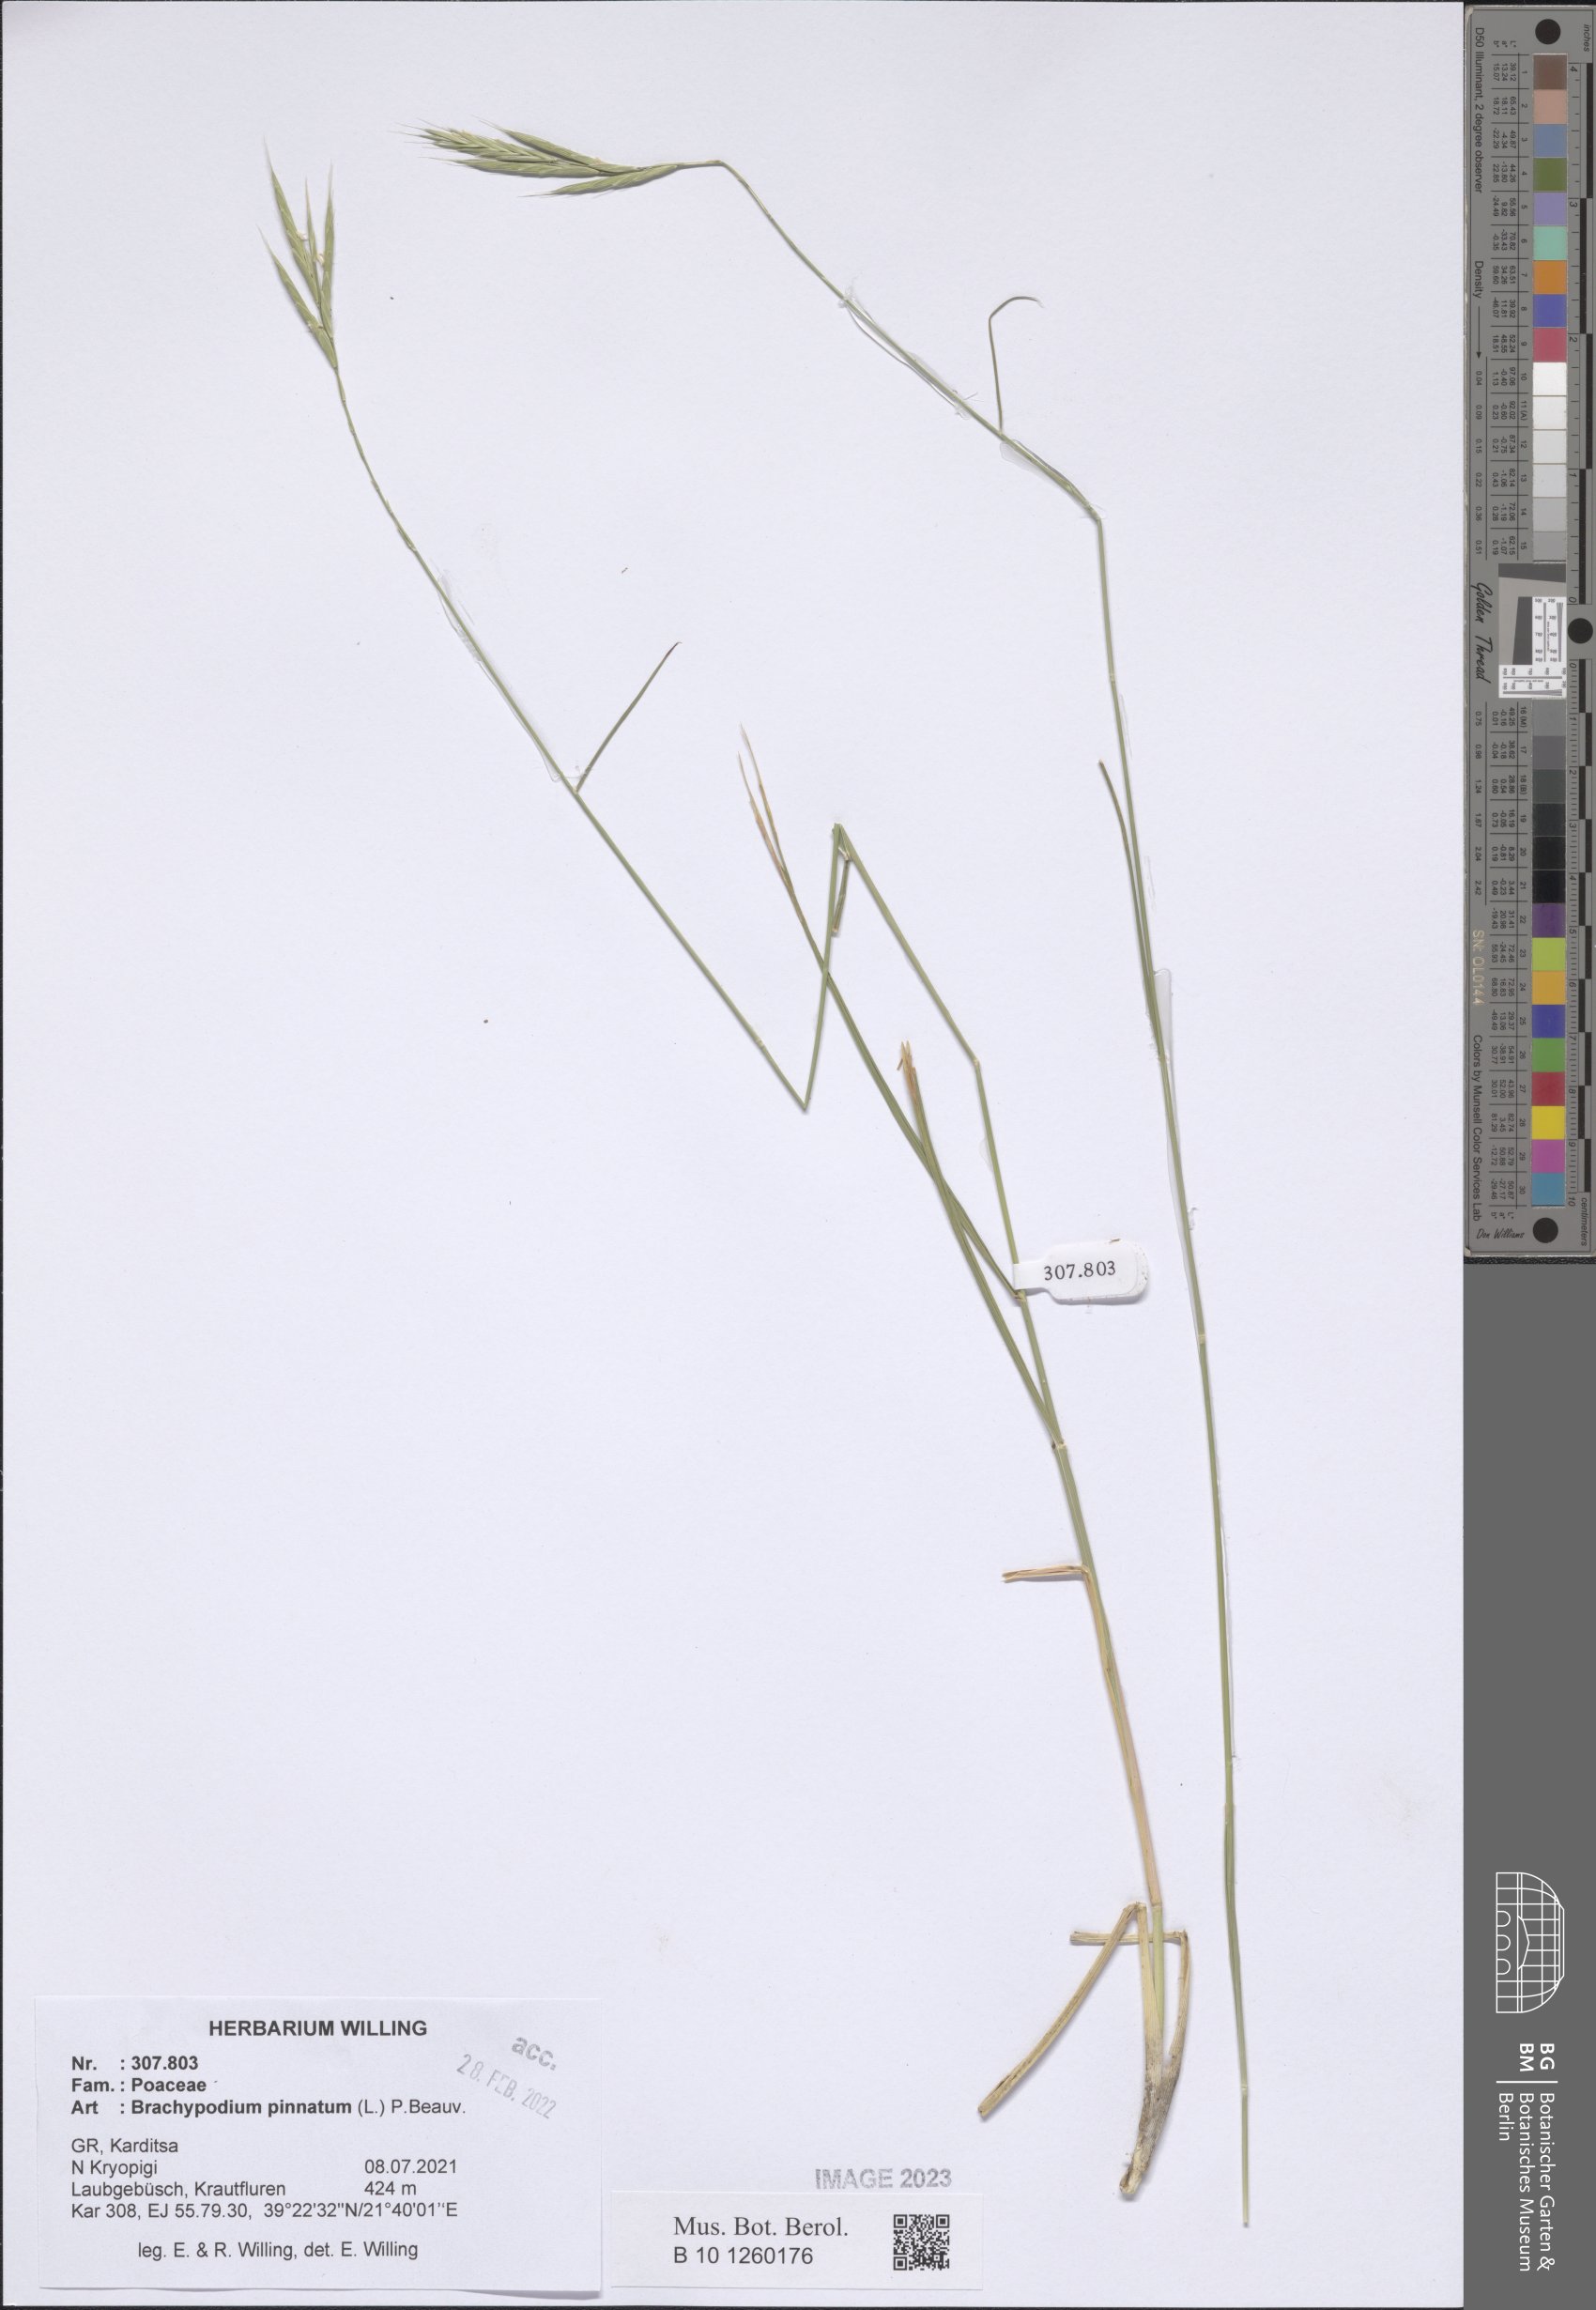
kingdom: Plantae
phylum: Tracheophyta
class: Liliopsida
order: Poales
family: Poaceae
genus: Brachypodium
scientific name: Brachypodium pinnatum
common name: Tor grass
